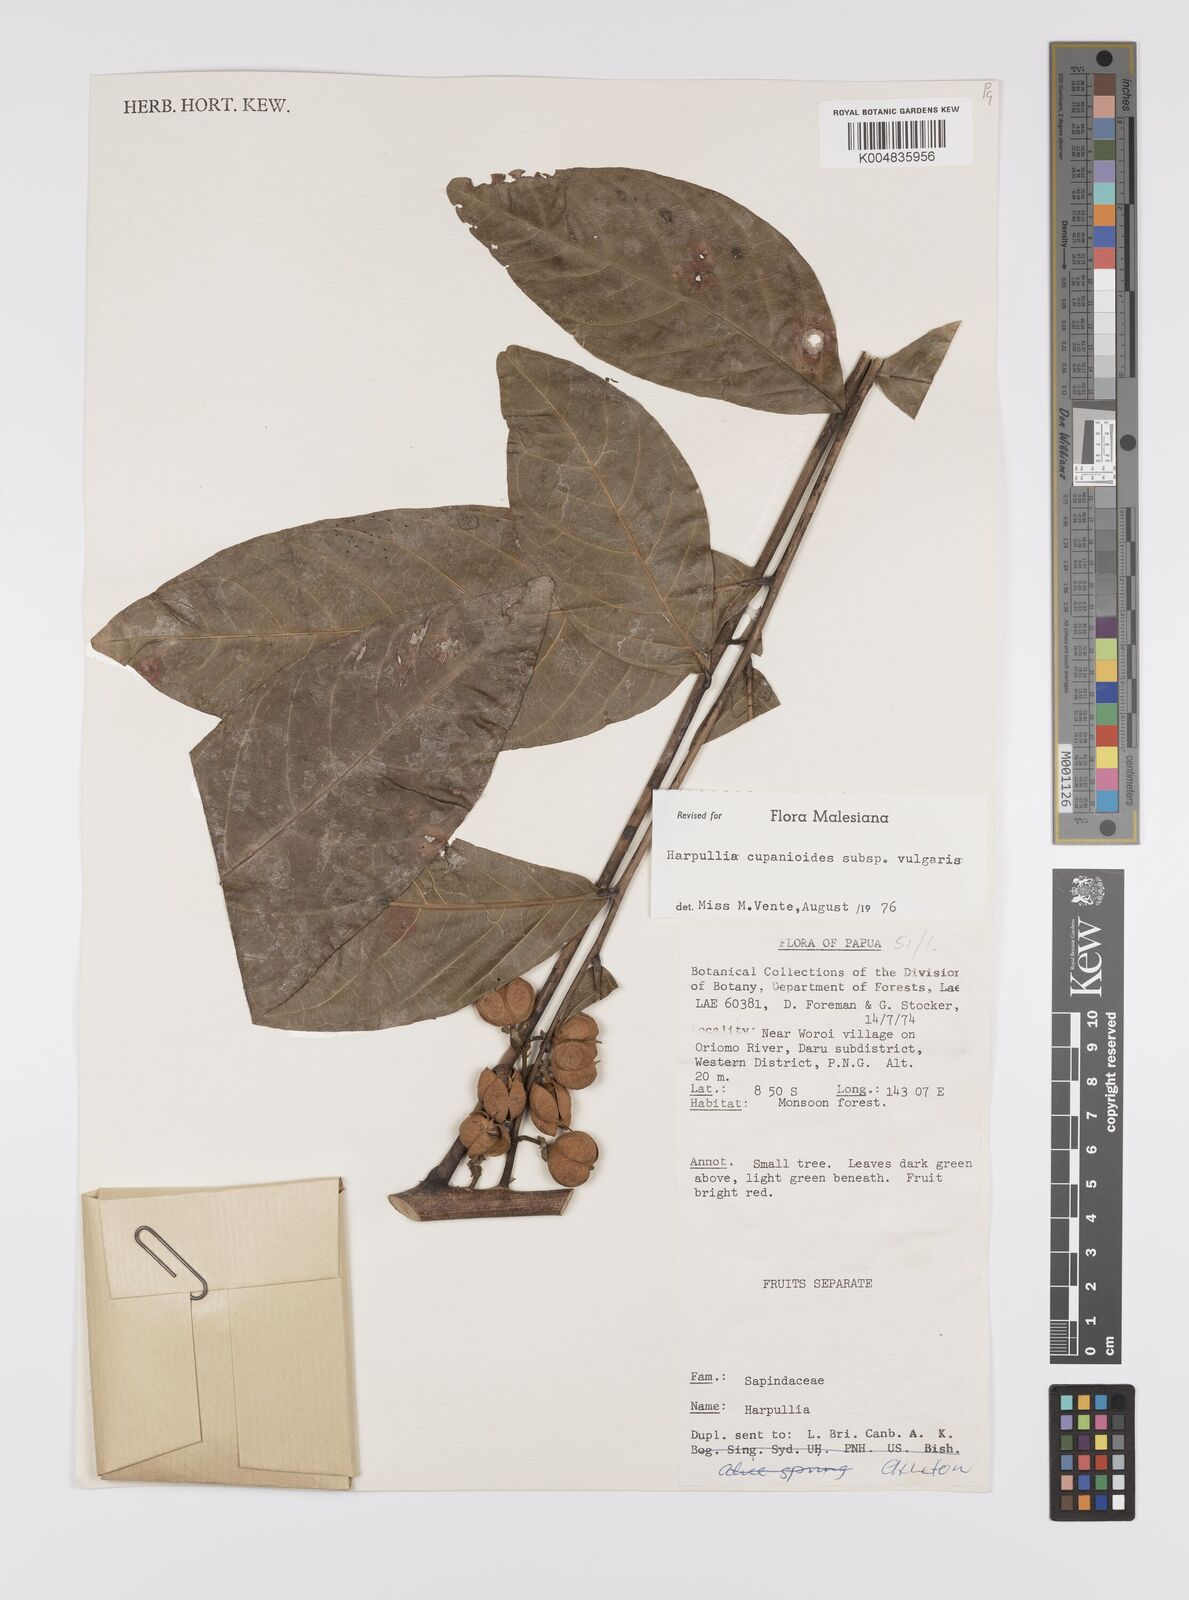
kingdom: Plantae
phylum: Tracheophyta
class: Magnoliopsida
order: Sapindales
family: Sapindaceae
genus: Harpullia
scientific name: Harpullia cupanioides
